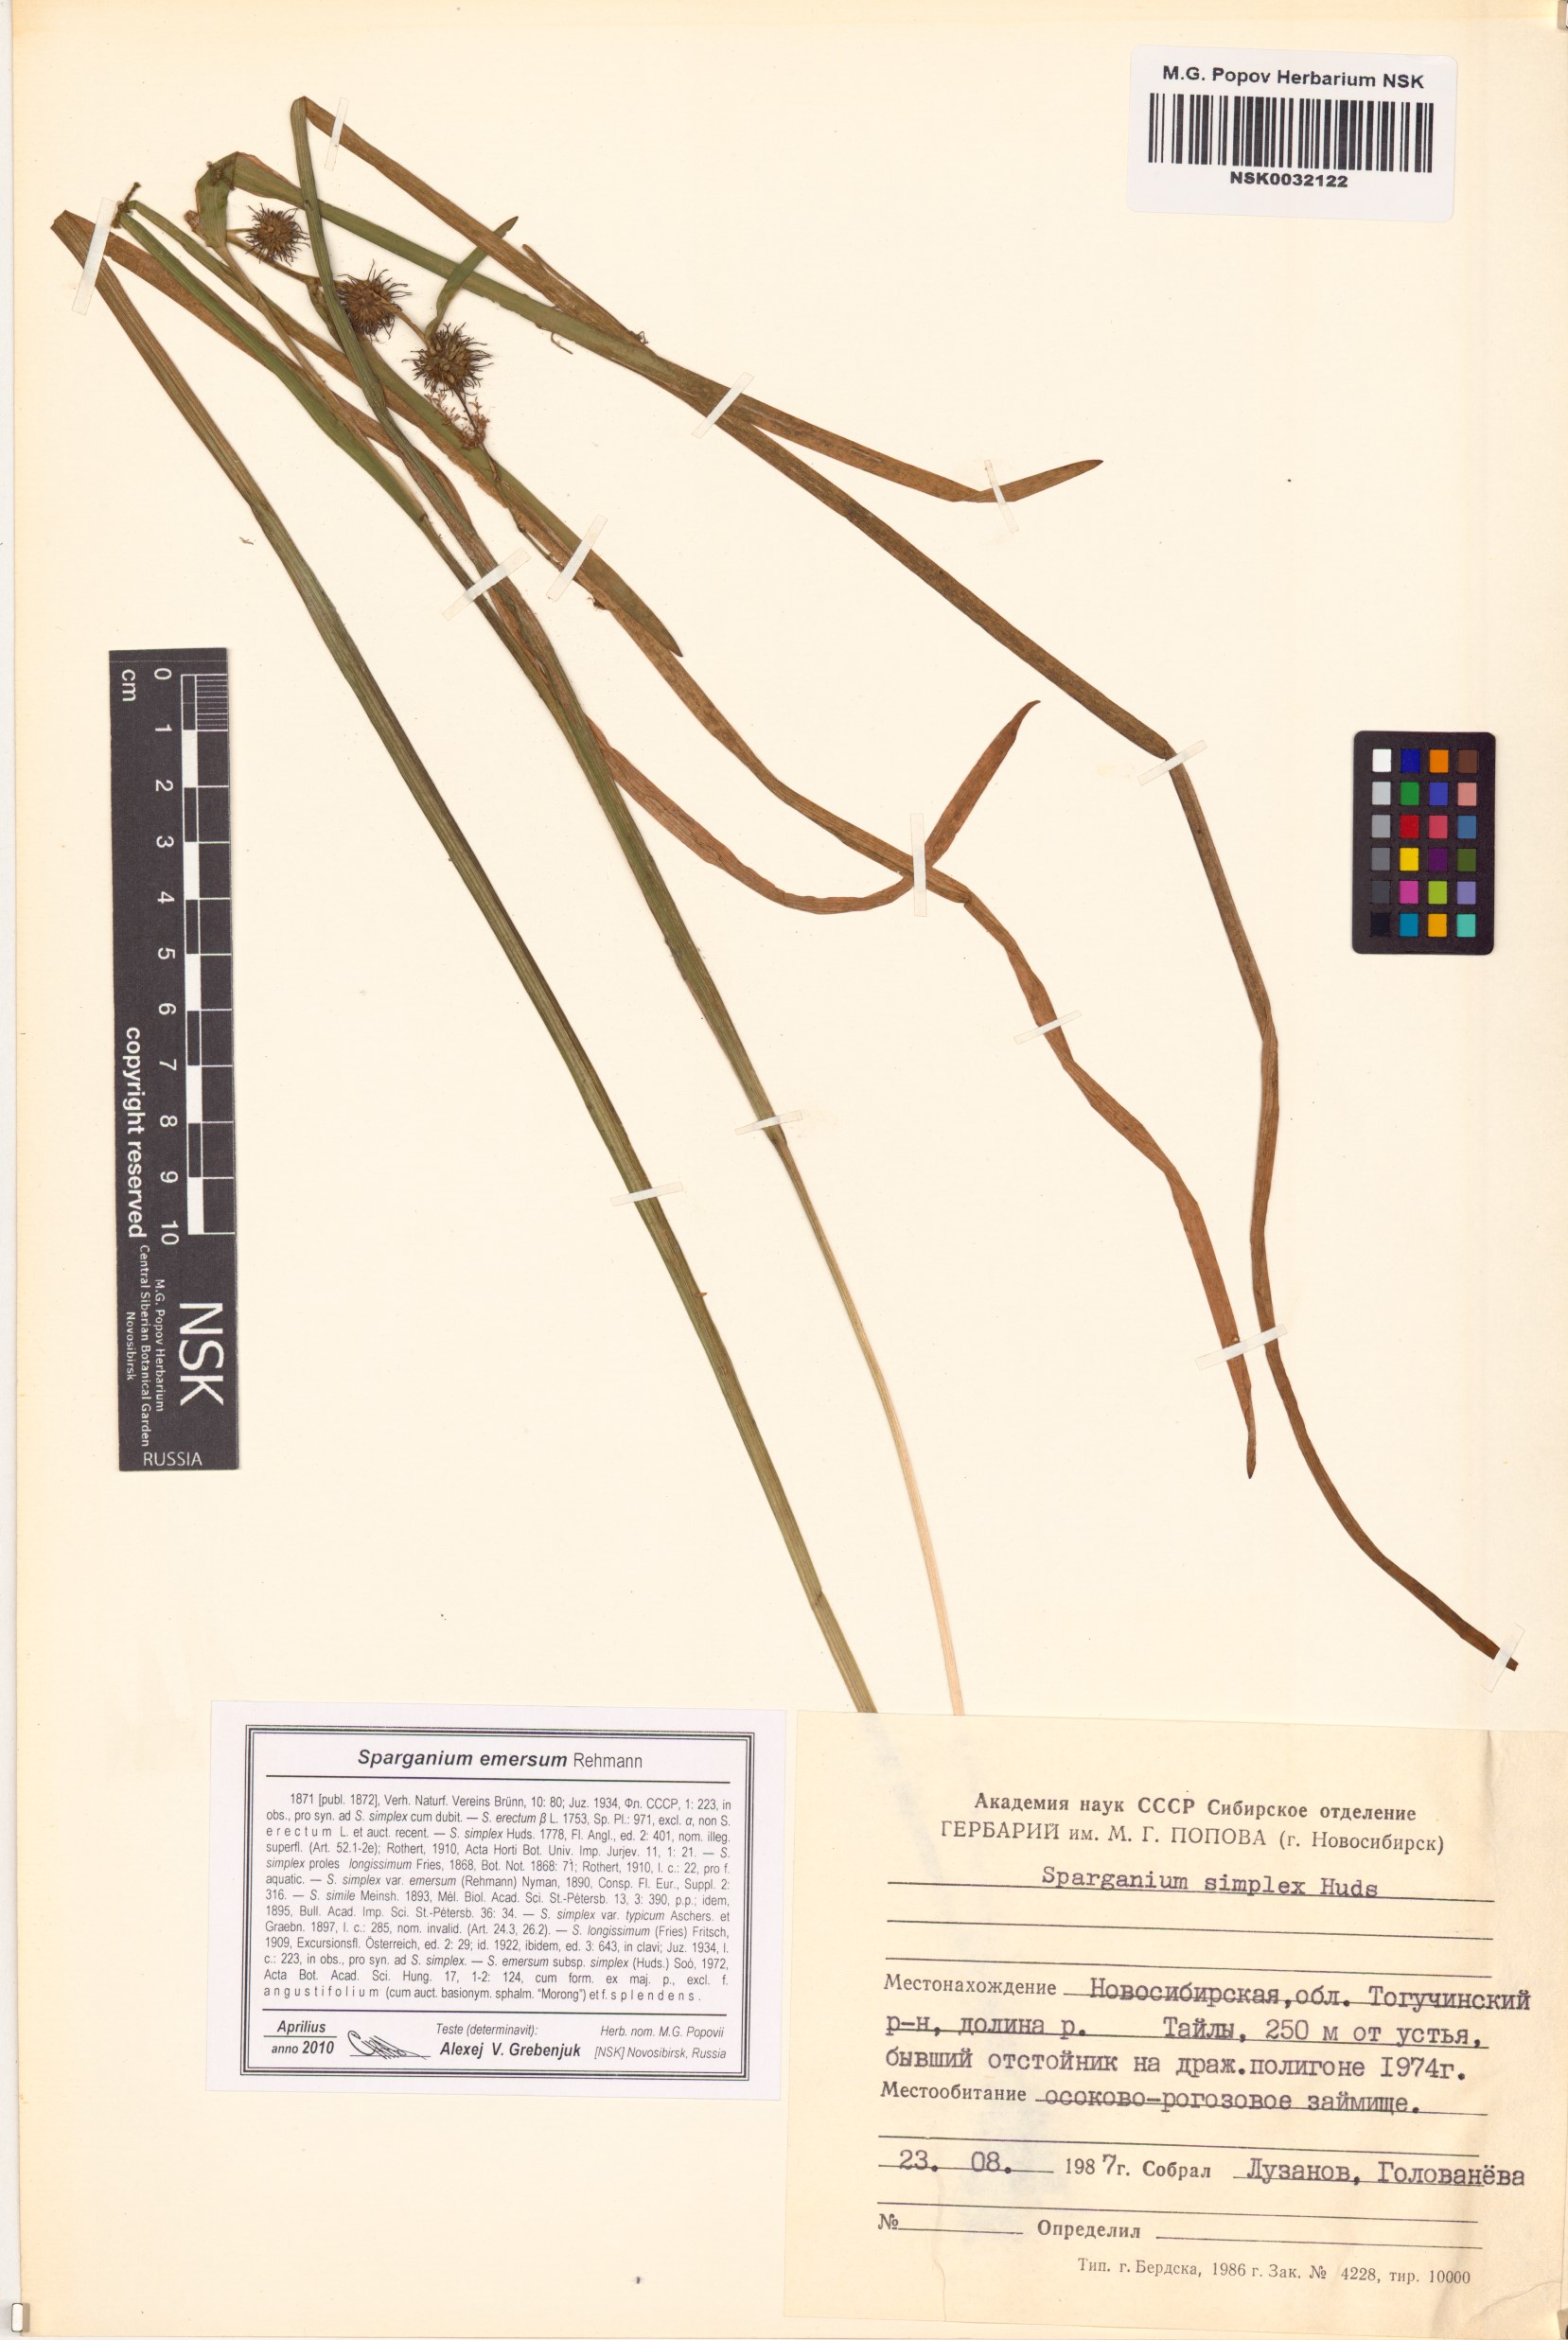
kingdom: Plantae
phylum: Tracheophyta
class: Liliopsida
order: Poales
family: Typhaceae
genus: Sparganium
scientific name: Sparganium emersum
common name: Unbranched bur-reed
